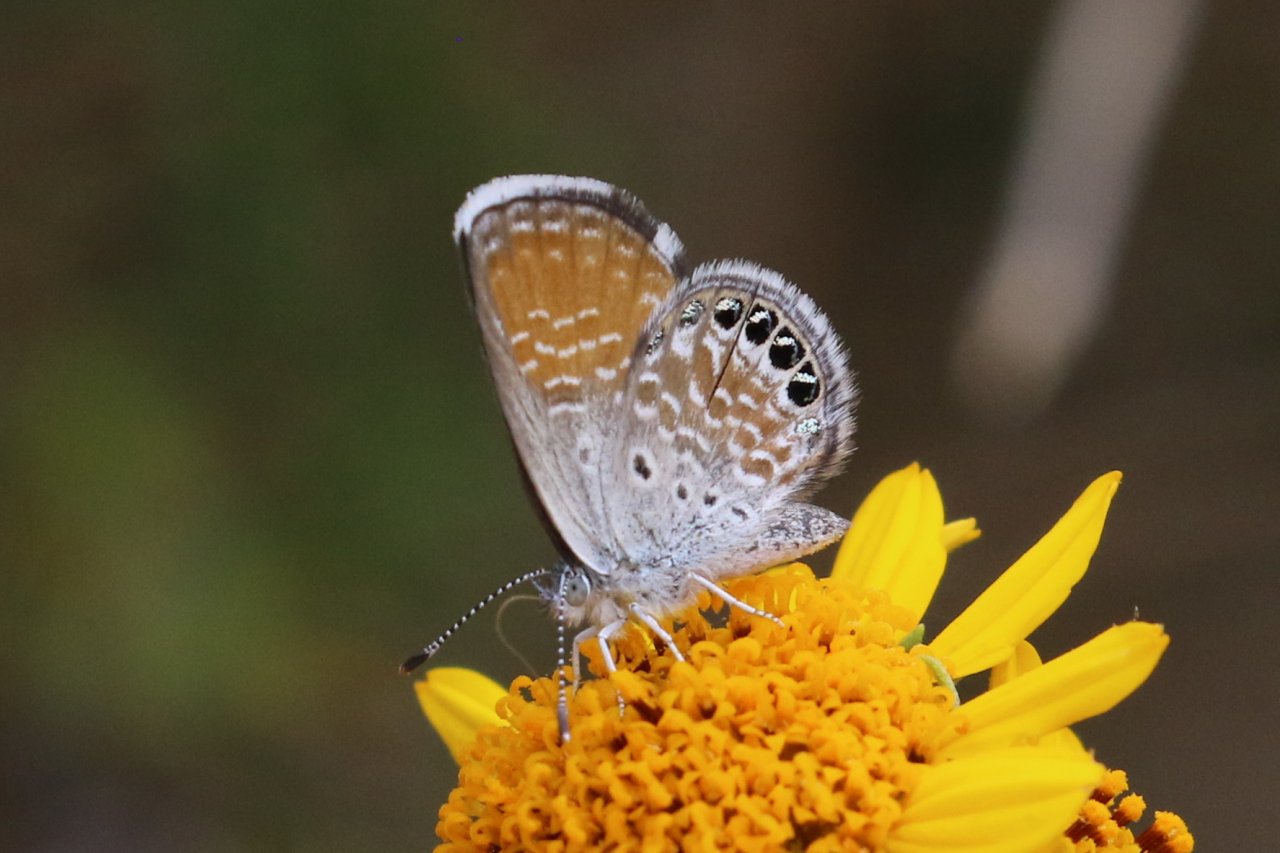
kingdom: Animalia
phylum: Arthropoda
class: Insecta
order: Lepidoptera
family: Lycaenidae
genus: Brephidium
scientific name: Brephidium exilis
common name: Western Pygmy-Blue
